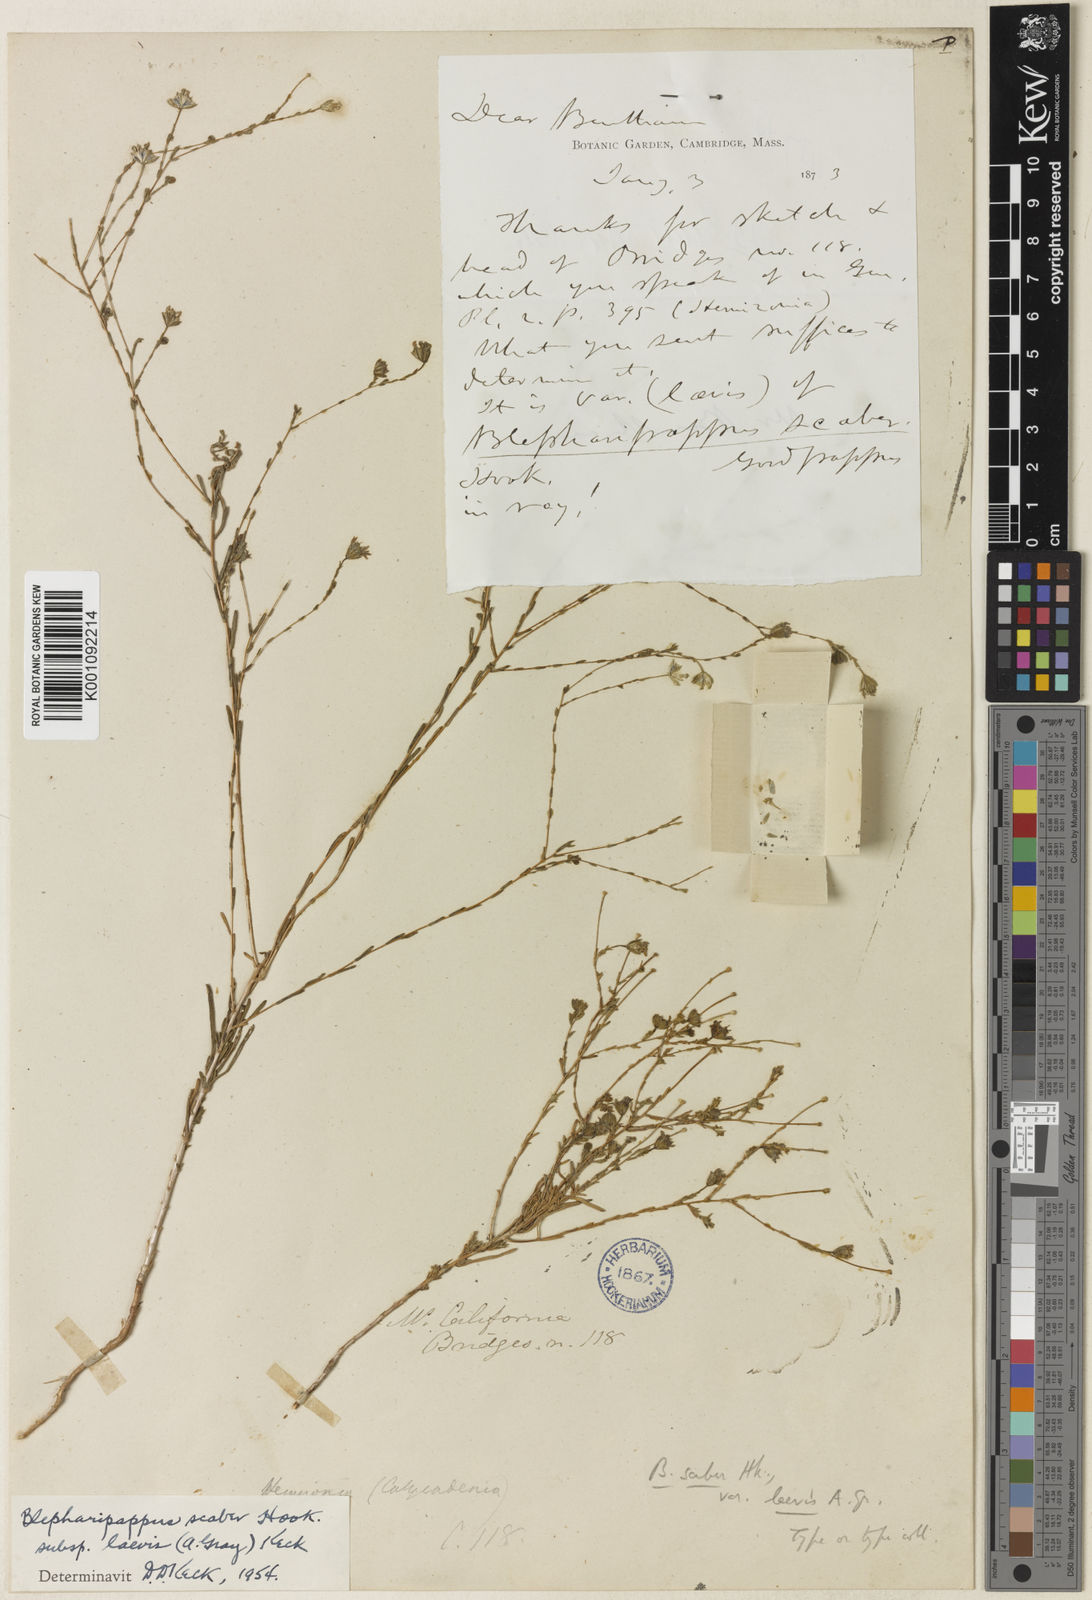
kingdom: Plantae
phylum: Tracheophyta
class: Magnoliopsida
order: Asterales
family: Asteraceae
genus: Blepharipappus
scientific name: Blepharipappus scaber
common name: Rough blepharipappus
